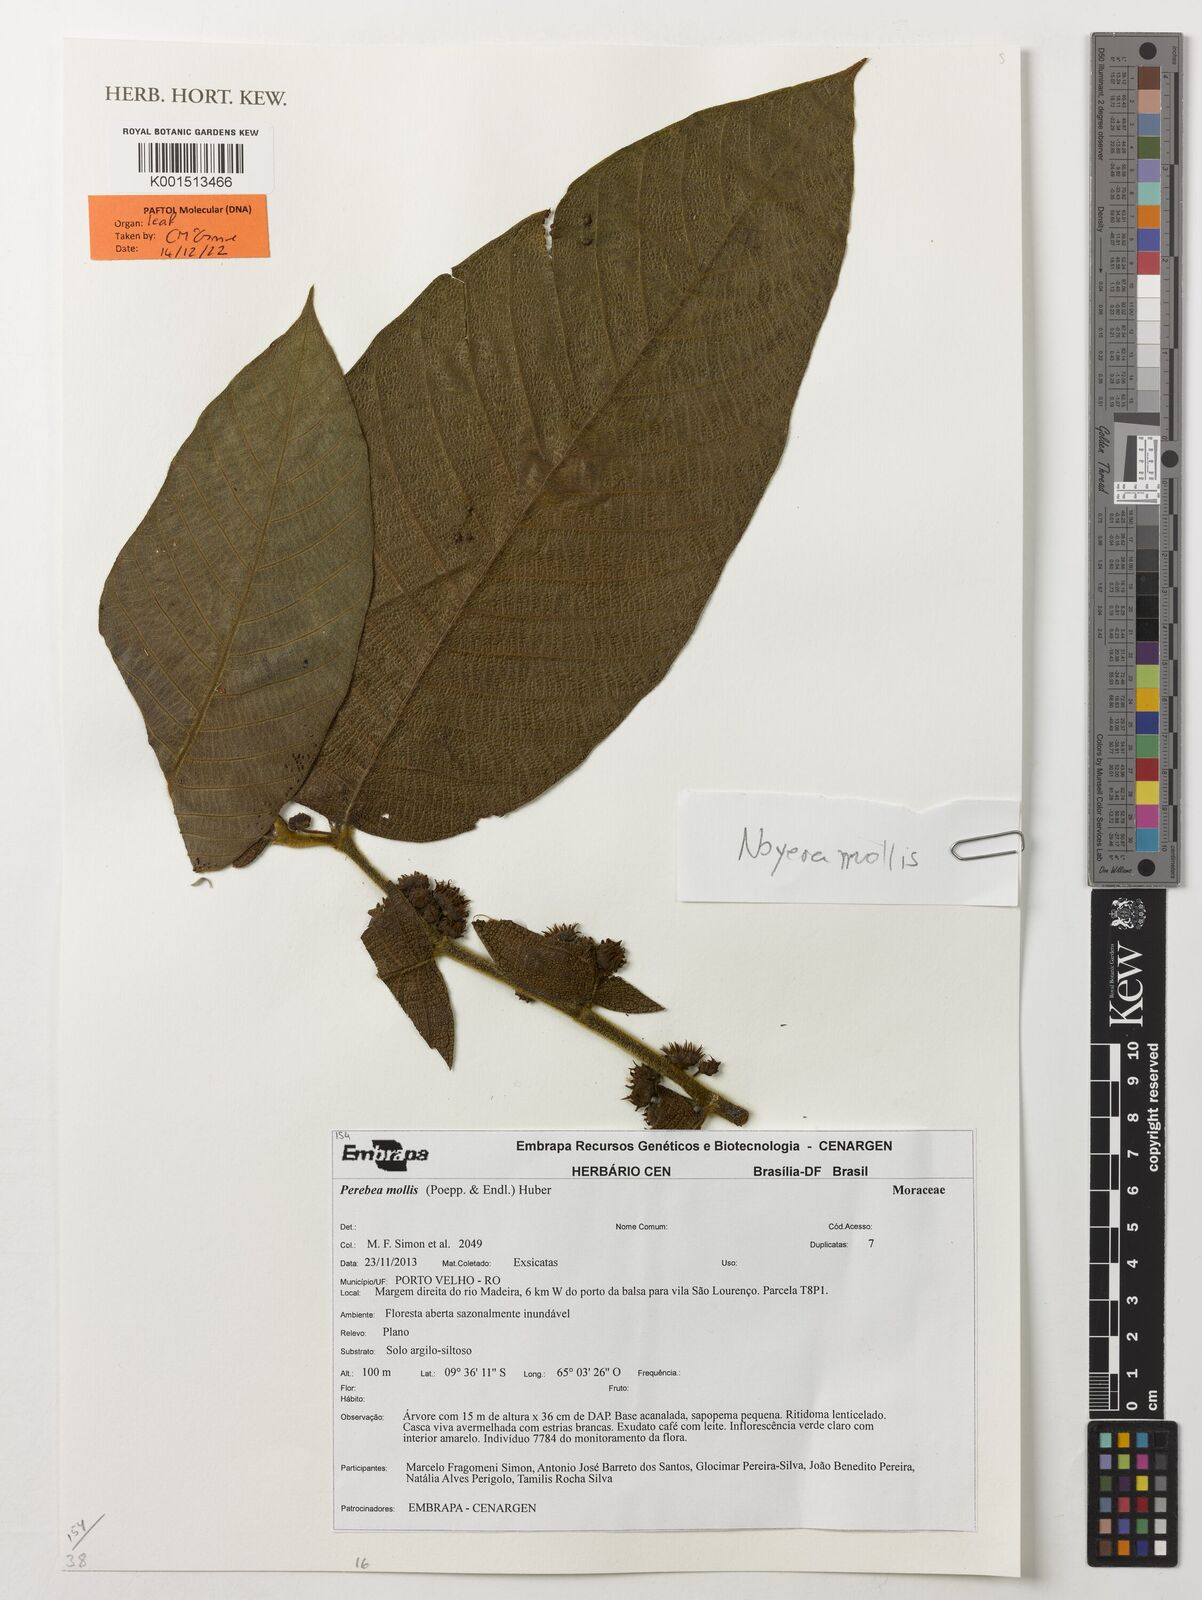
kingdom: Plantae
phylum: Tracheophyta
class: Magnoliopsida
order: Rosales
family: Moraceae
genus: Perebea
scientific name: Perebea mollis
